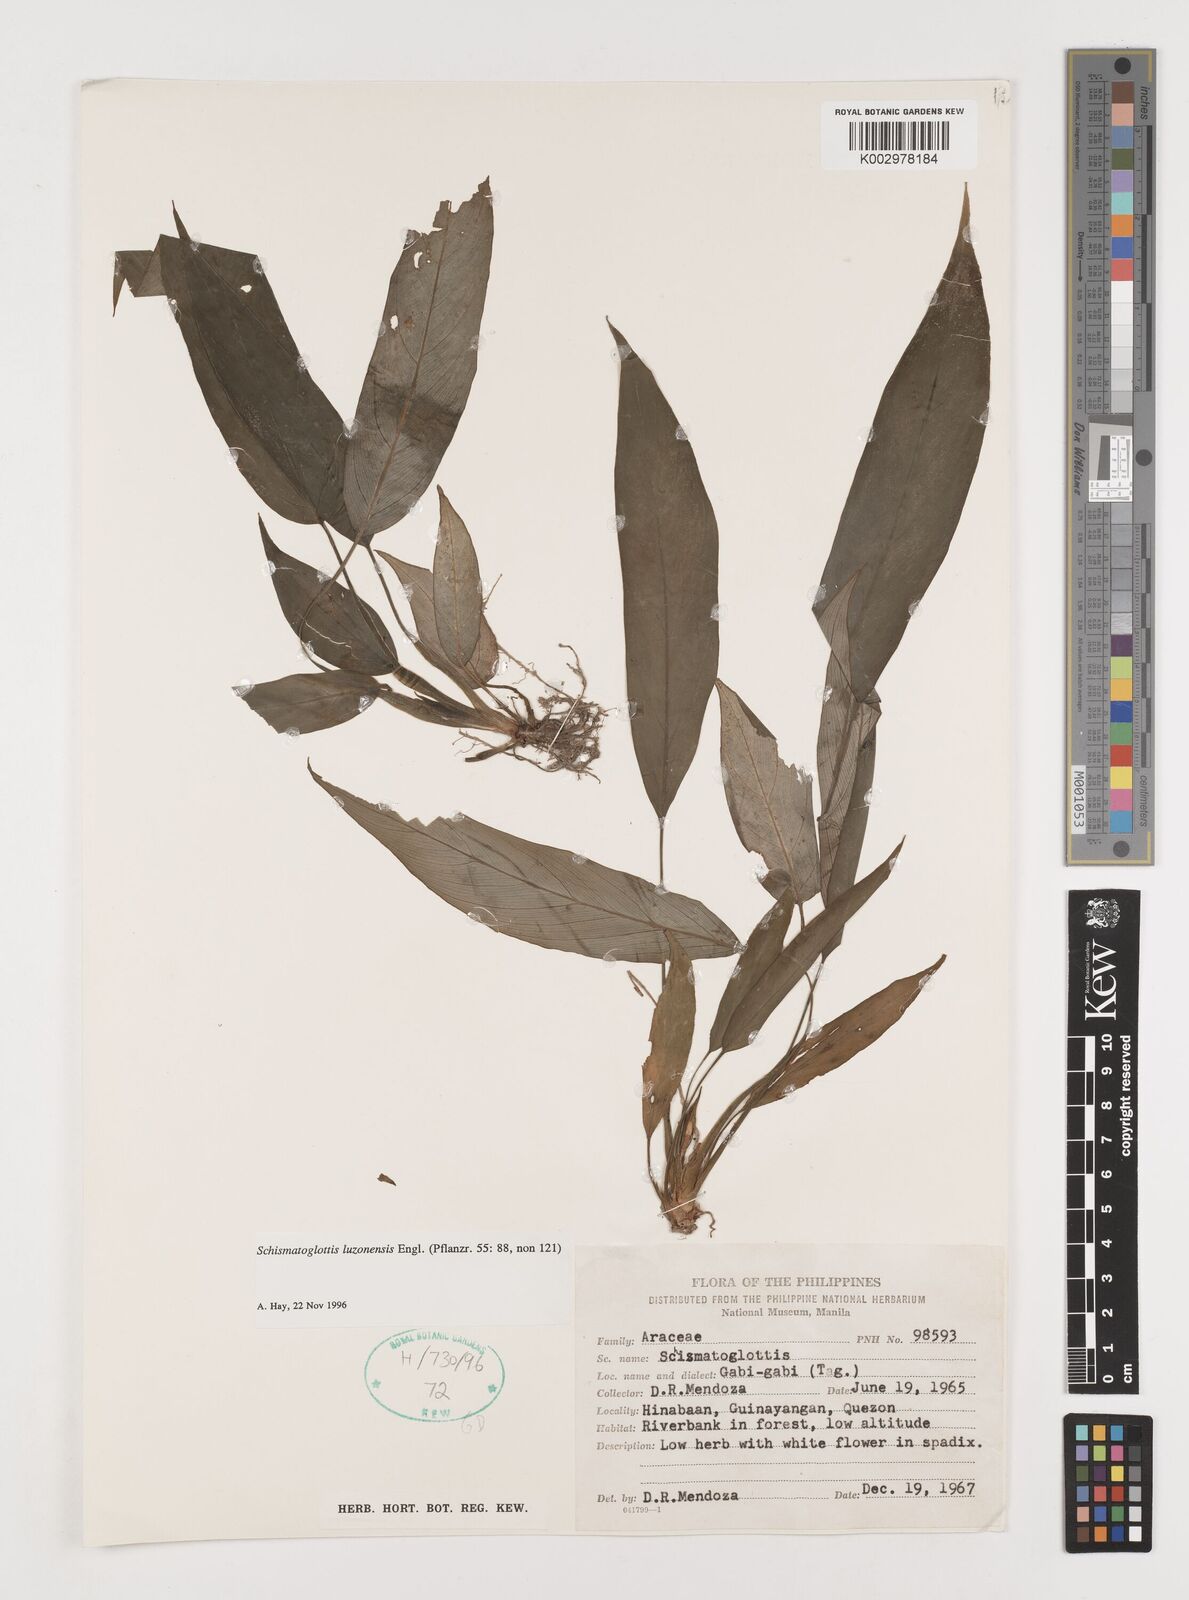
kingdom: Plantae
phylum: Tracheophyta
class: Liliopsida
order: Alismatales
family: Araceae
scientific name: Araceae
